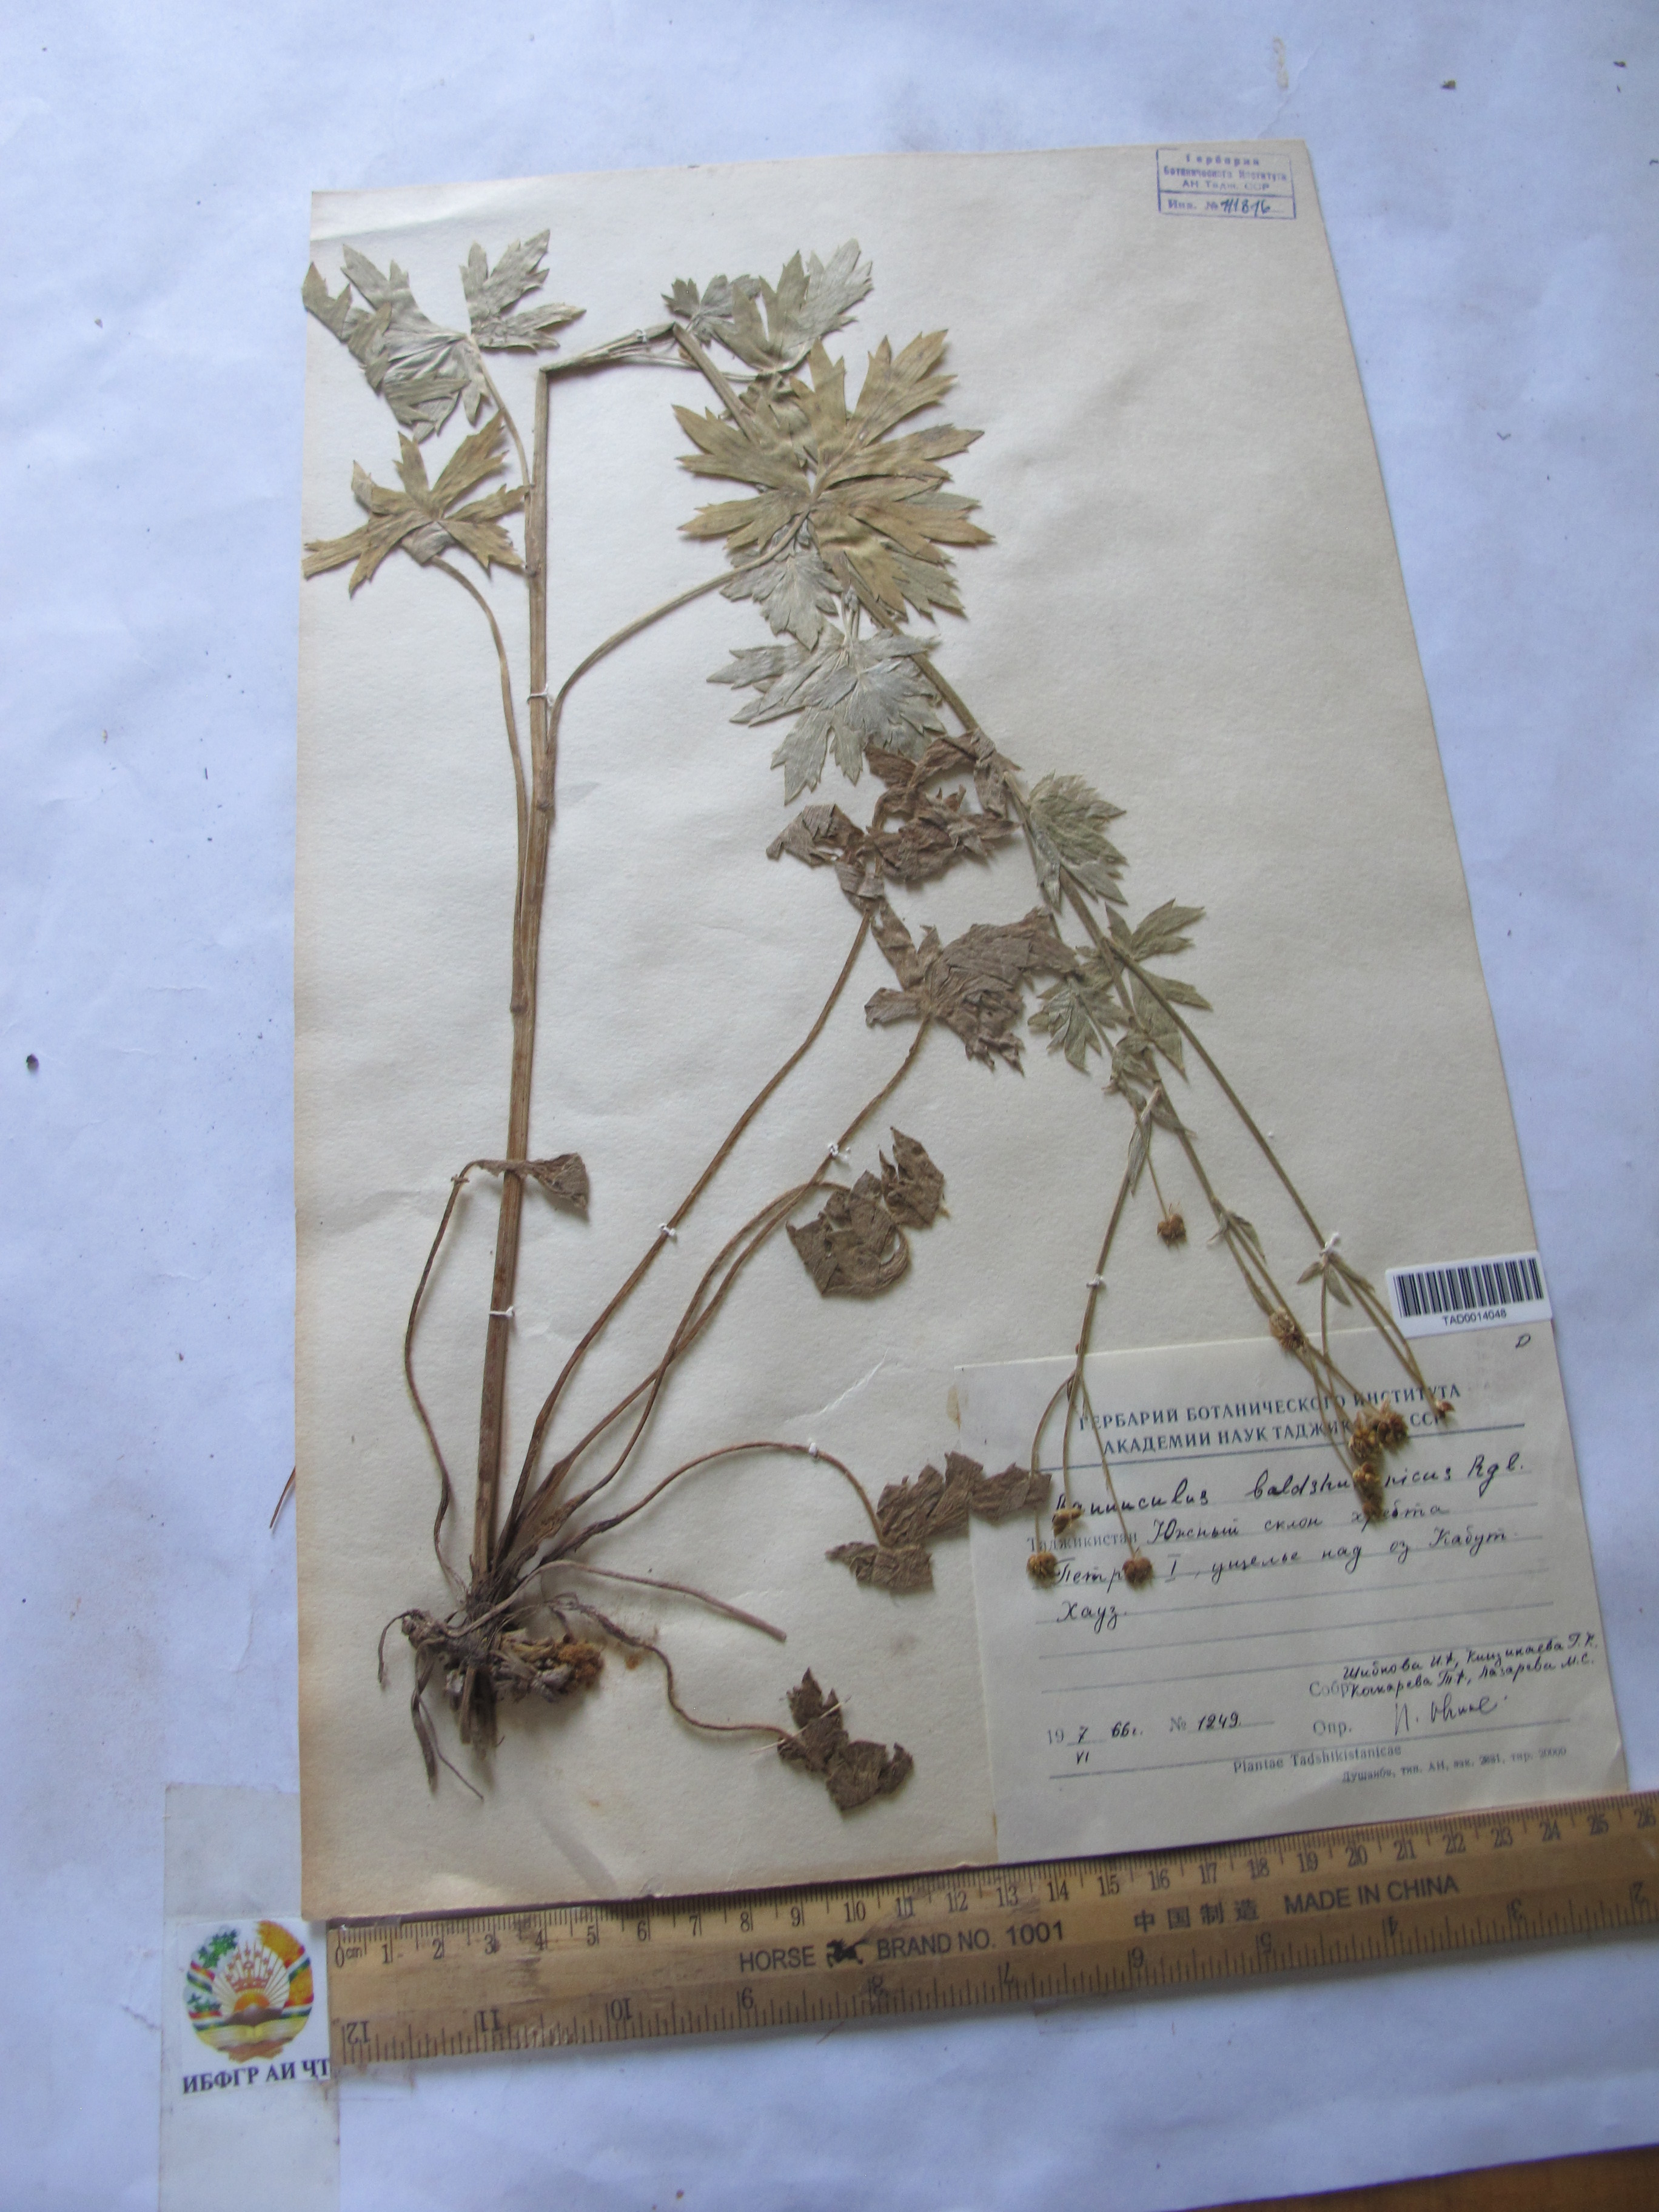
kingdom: Plantae
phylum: Tracheophyta
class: Magnoliopsida
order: Ranunculales
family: Ranunculaceae
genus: Ranunculus
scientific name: Ranunculus baldshuanicus
